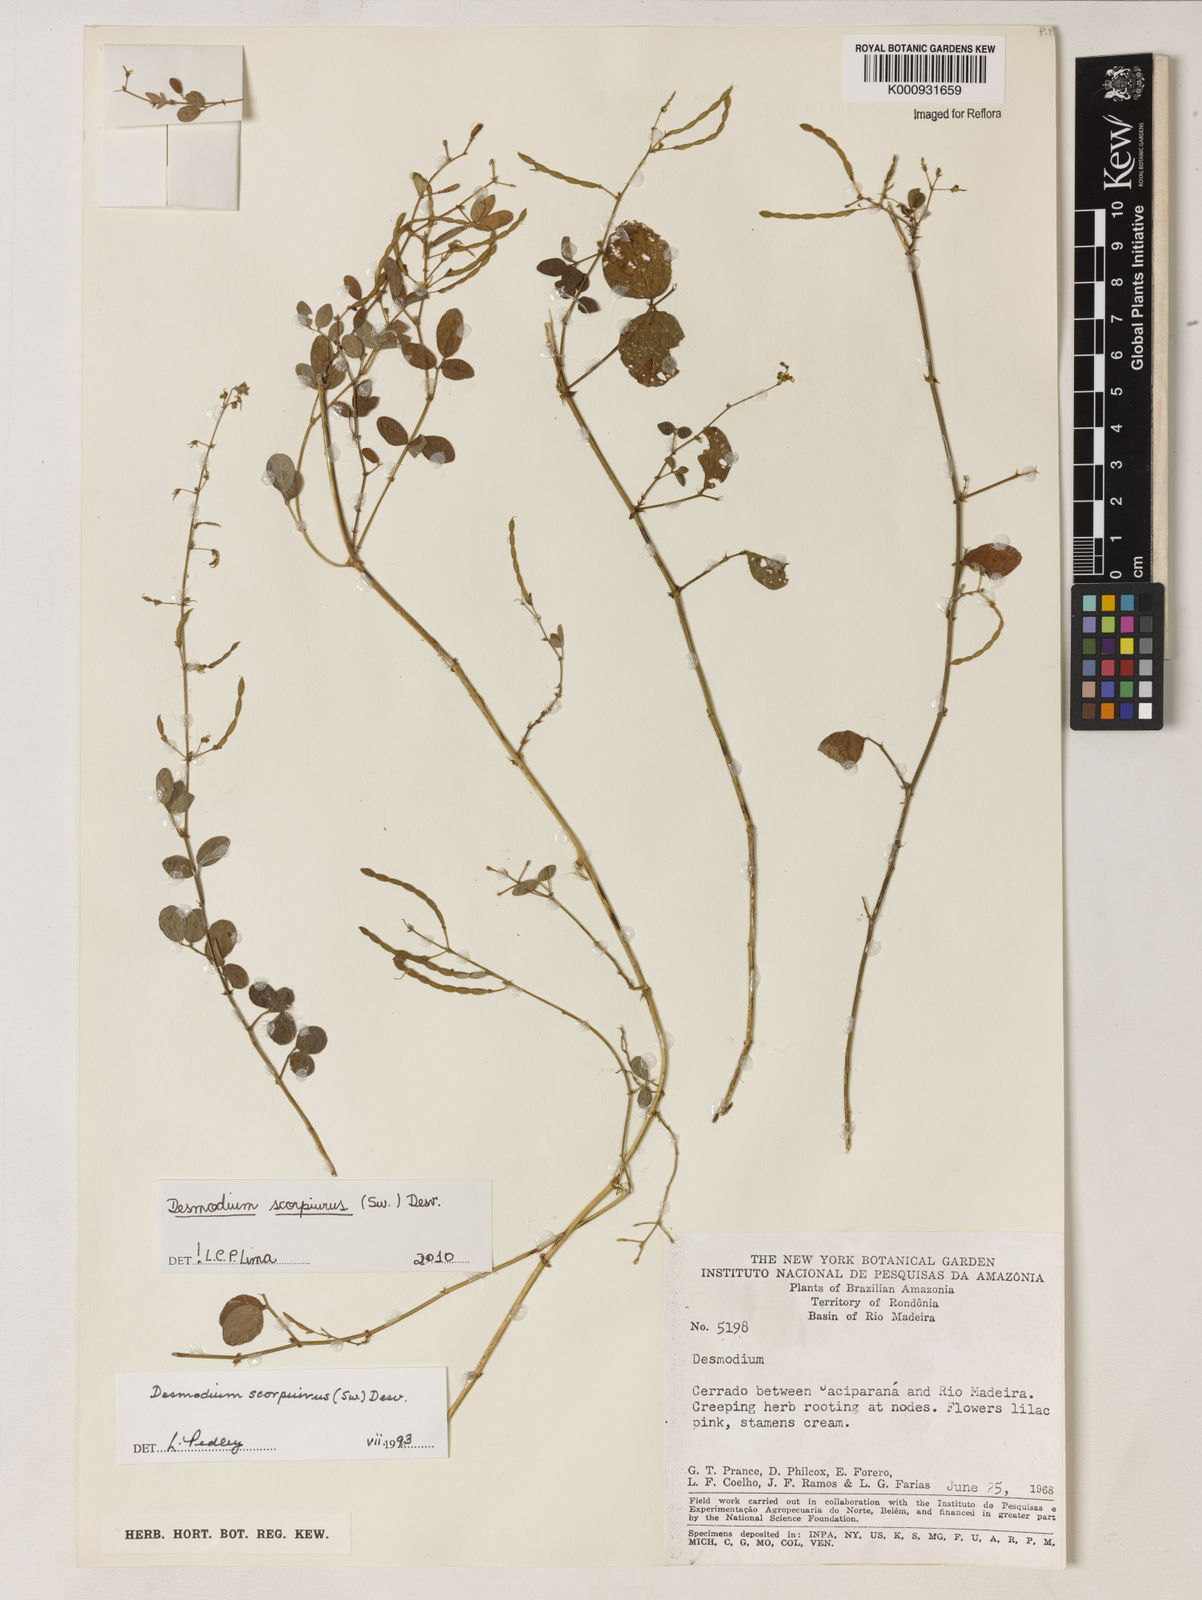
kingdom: Plantae
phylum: Tracheophyta
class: Magnoliopsida
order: Fabales
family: Fabaceae
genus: Desmodium
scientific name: Desmodium
